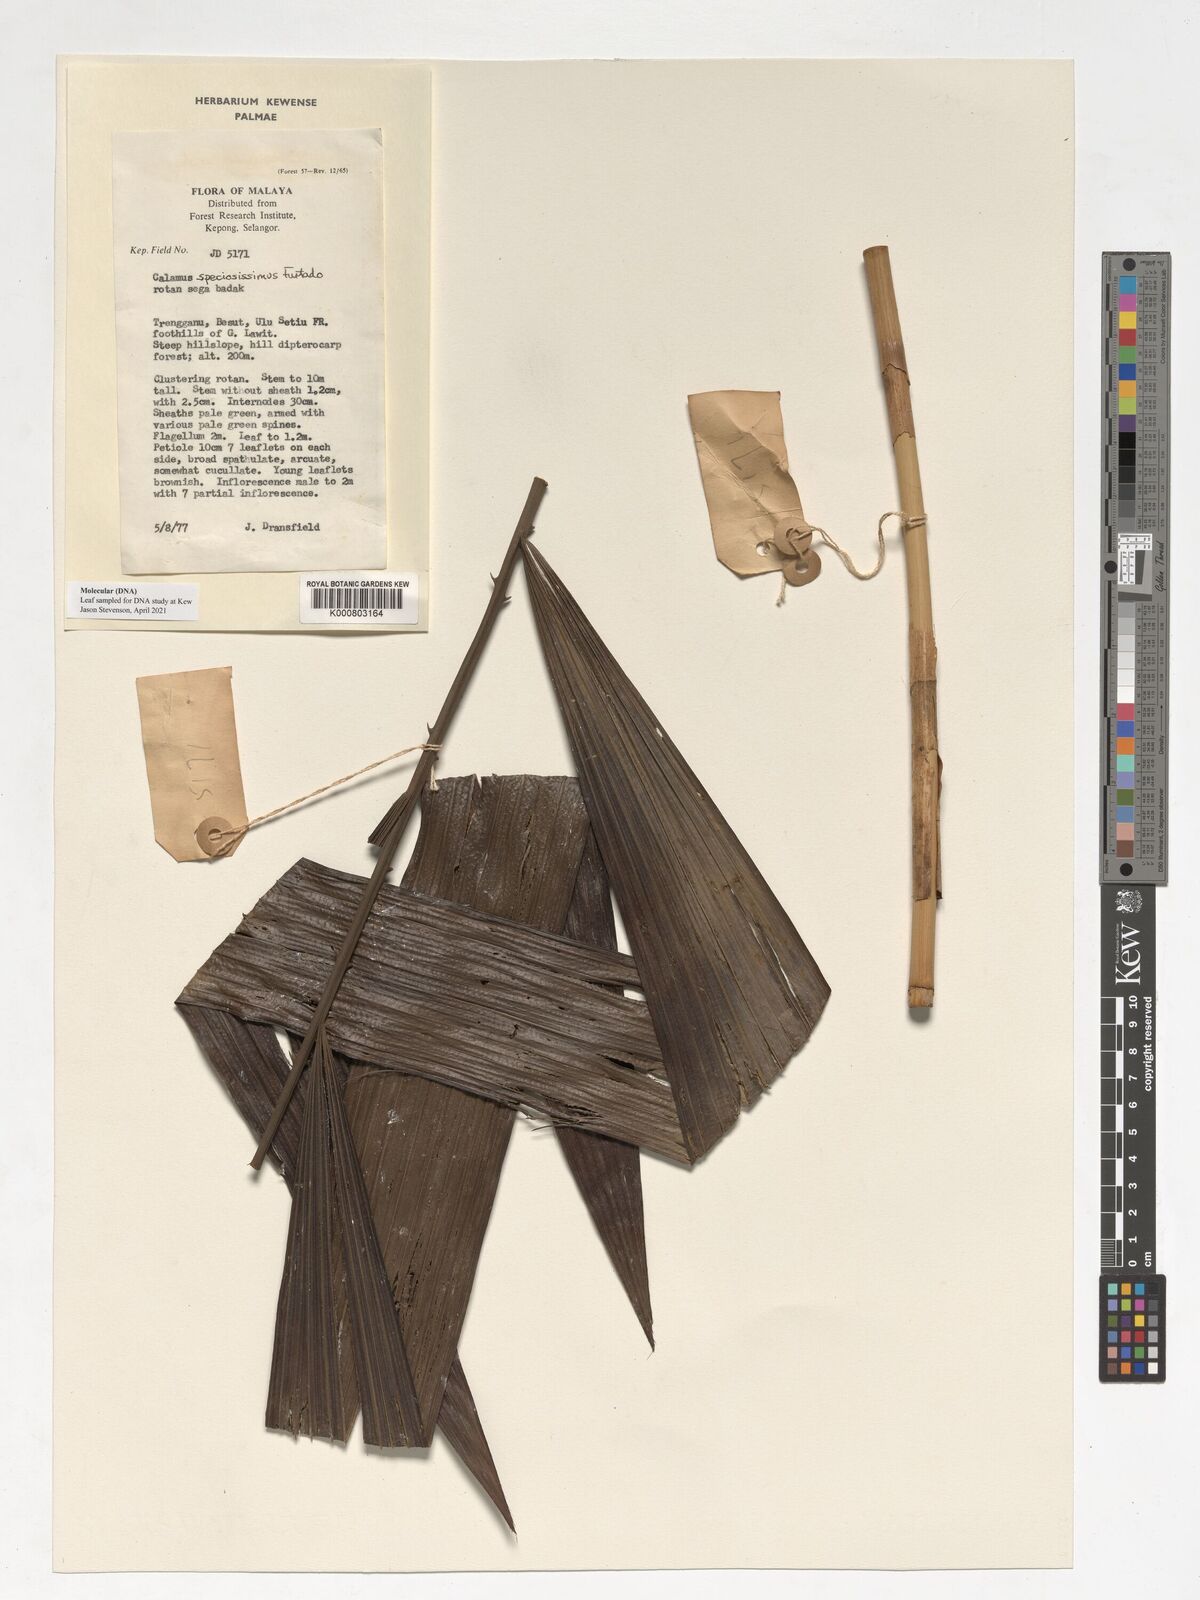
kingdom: Plantae
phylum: Tracheophyta
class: Liliopsida
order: Arecales
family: Arecaceae
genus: Calamus
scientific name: Calamus micranthus
